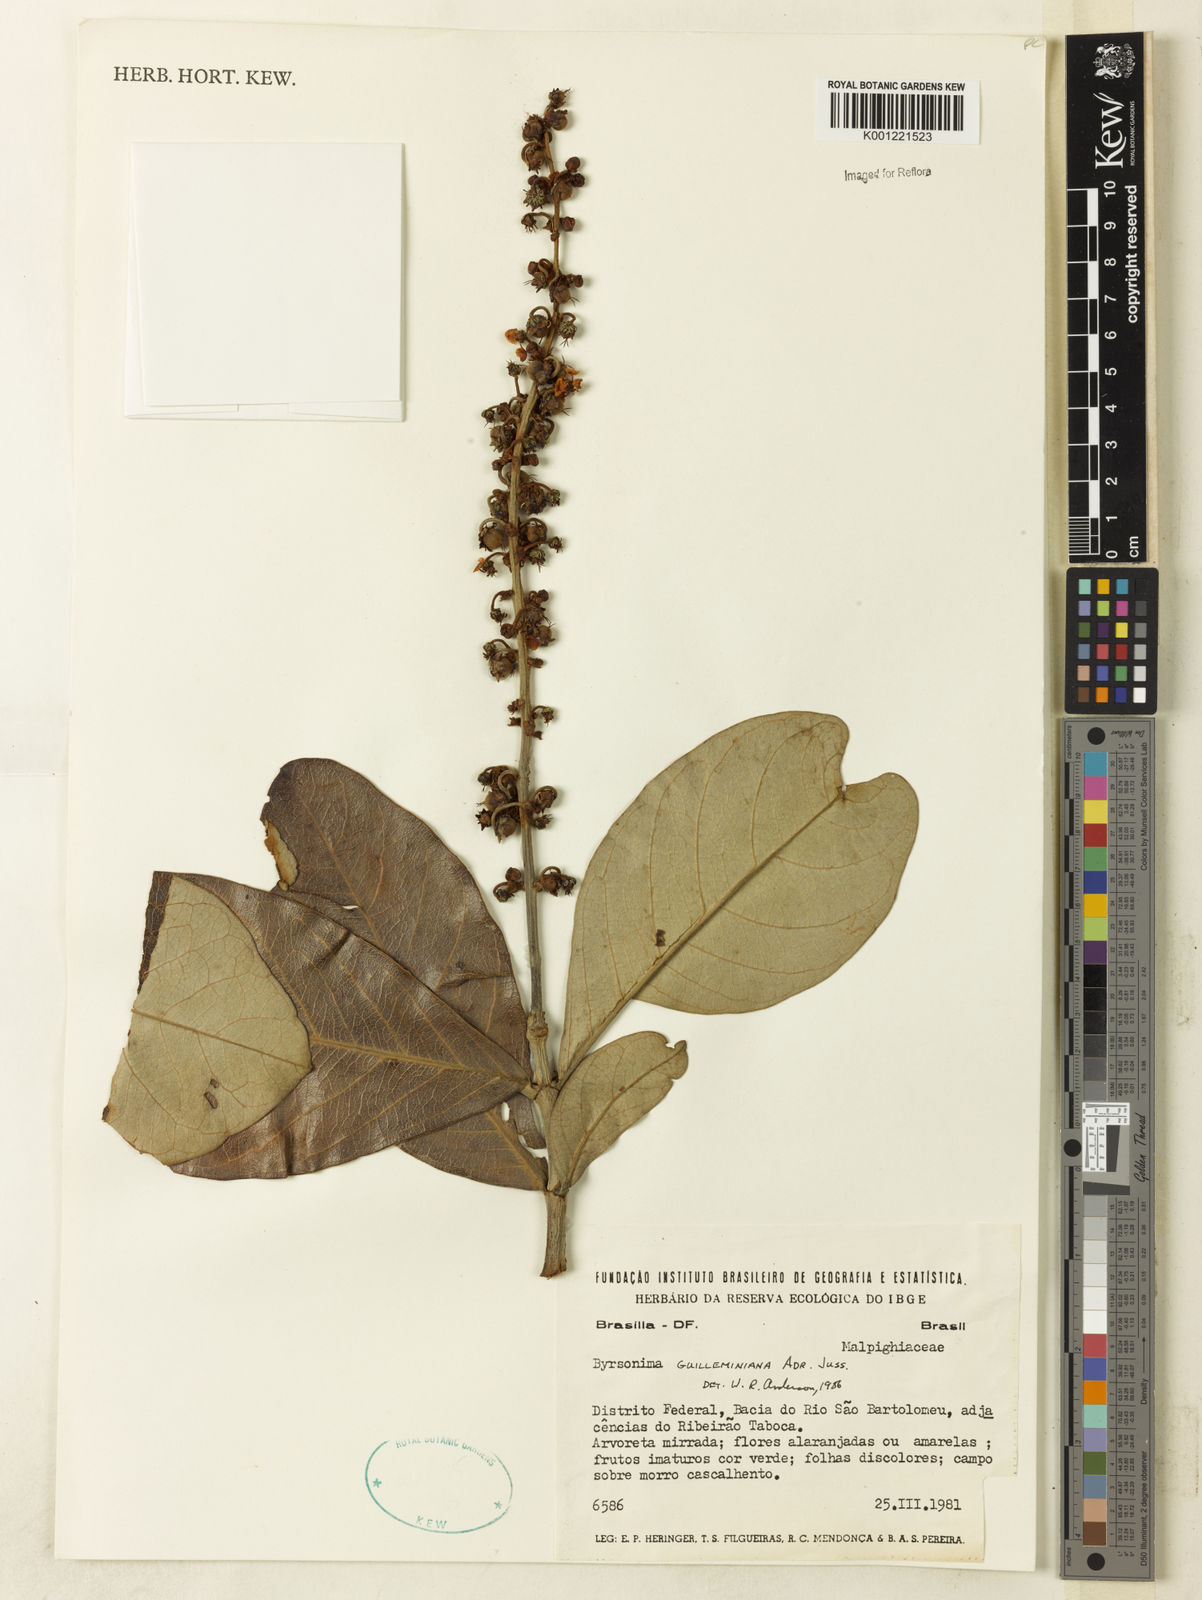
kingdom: Plantae
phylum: Tracheophyta
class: Magnoliopsida
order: Malpighiales
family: Malpighiaceae
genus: Byrsonima
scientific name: Byrsonima guilleminiana
